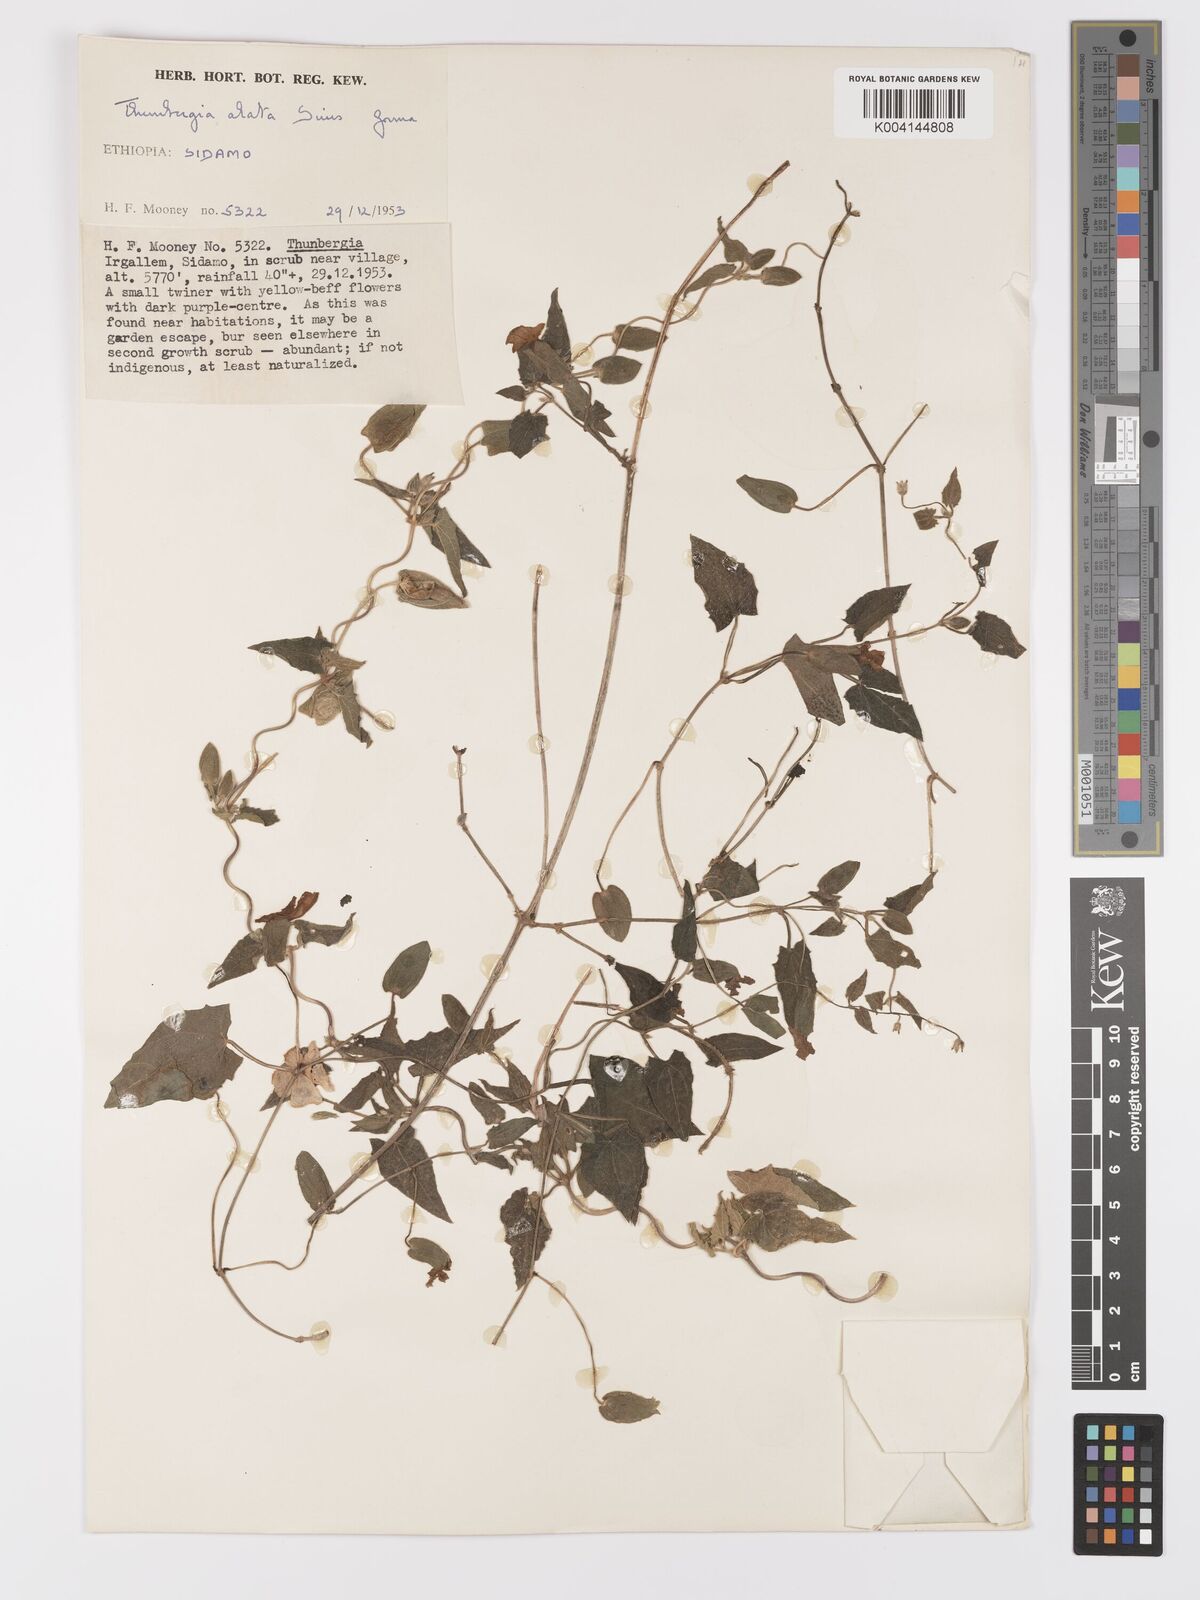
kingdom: Plantae
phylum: Tracheophyta
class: Magnoliopsida
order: Lamiales
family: Acanthaceae
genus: Thunbergia
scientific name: Thunbergia alata
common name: Blackeyed susan vine
